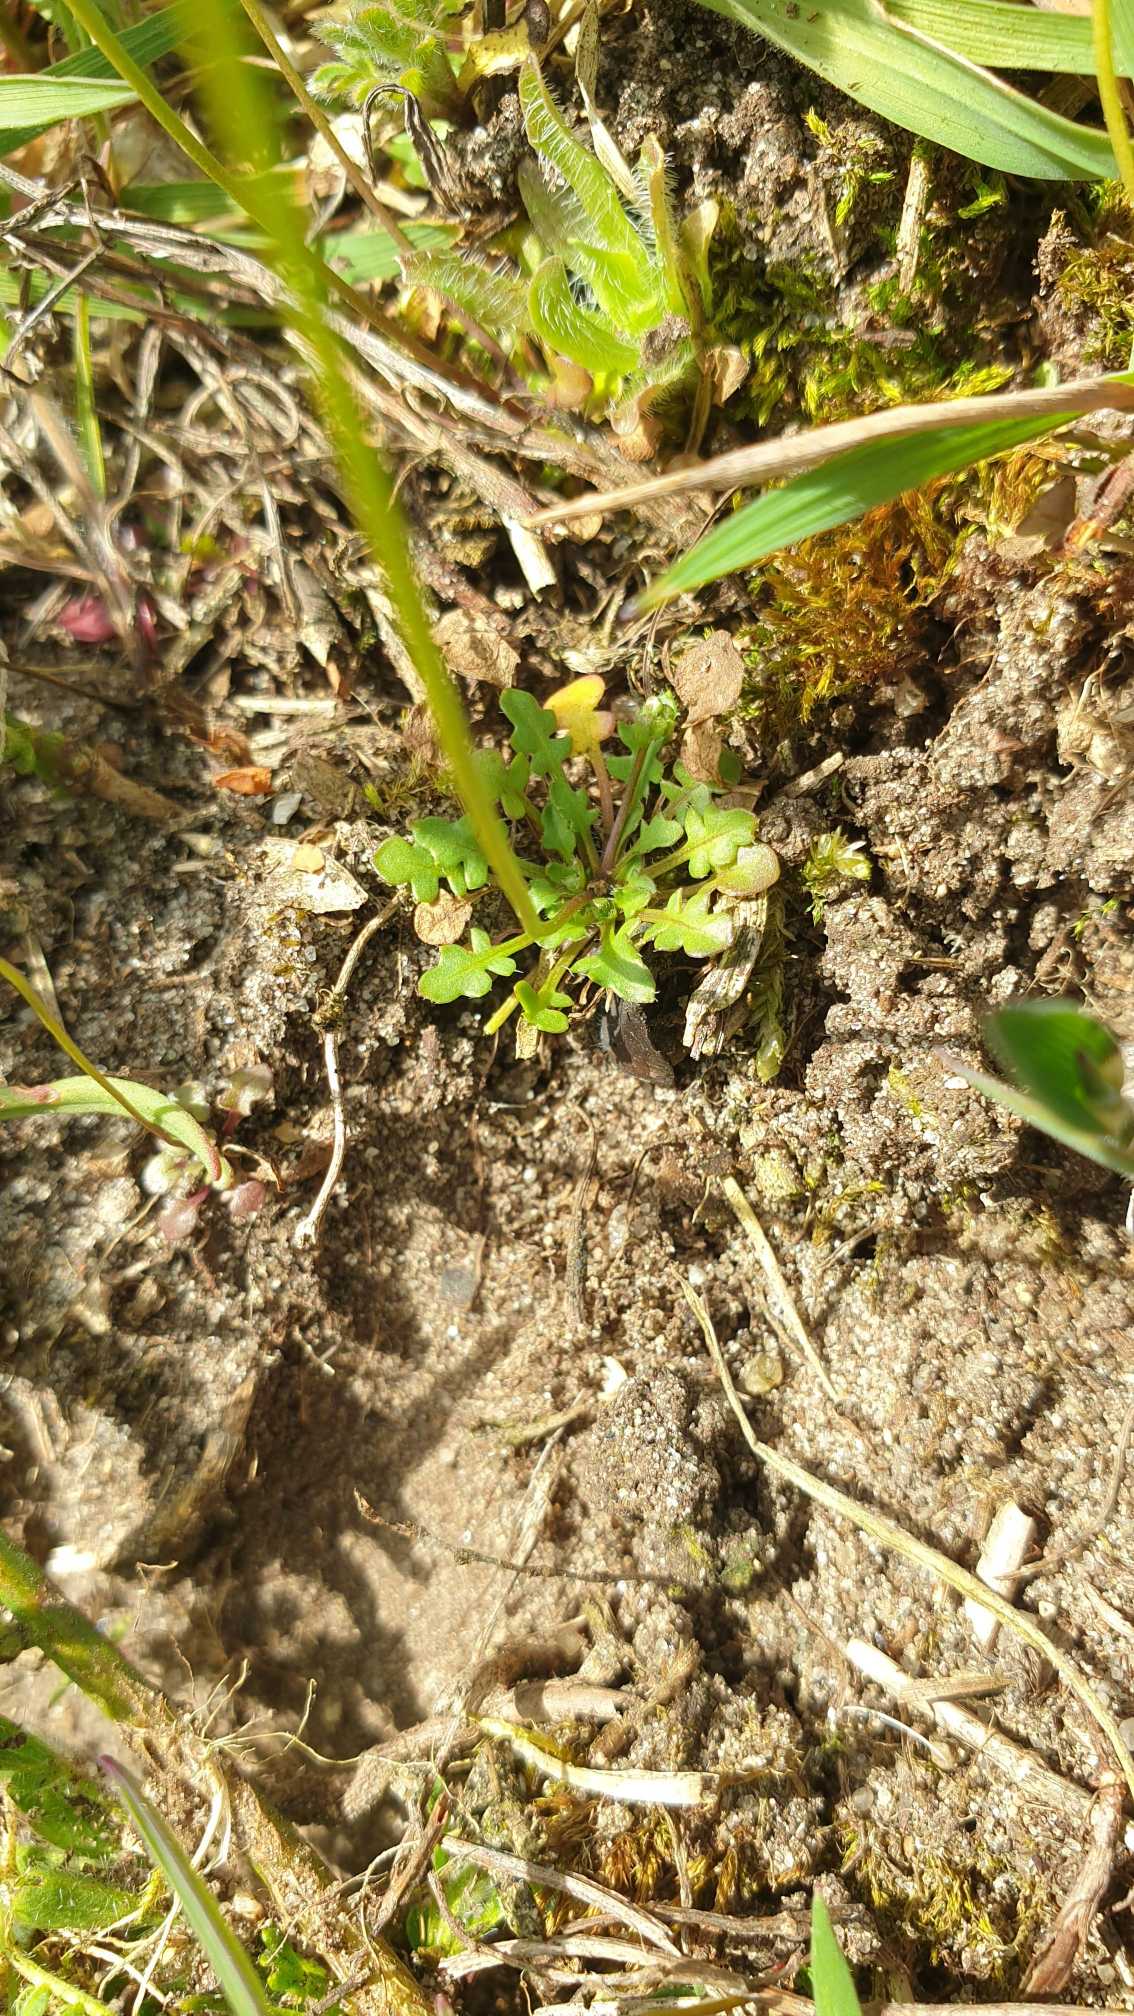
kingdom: Plantae
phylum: Tracheophyta
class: Magnoliopsida
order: Brassicales
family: Brassicaceae
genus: Teesdalia
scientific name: Teesdalia nudicaulis
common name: Flipkrave
